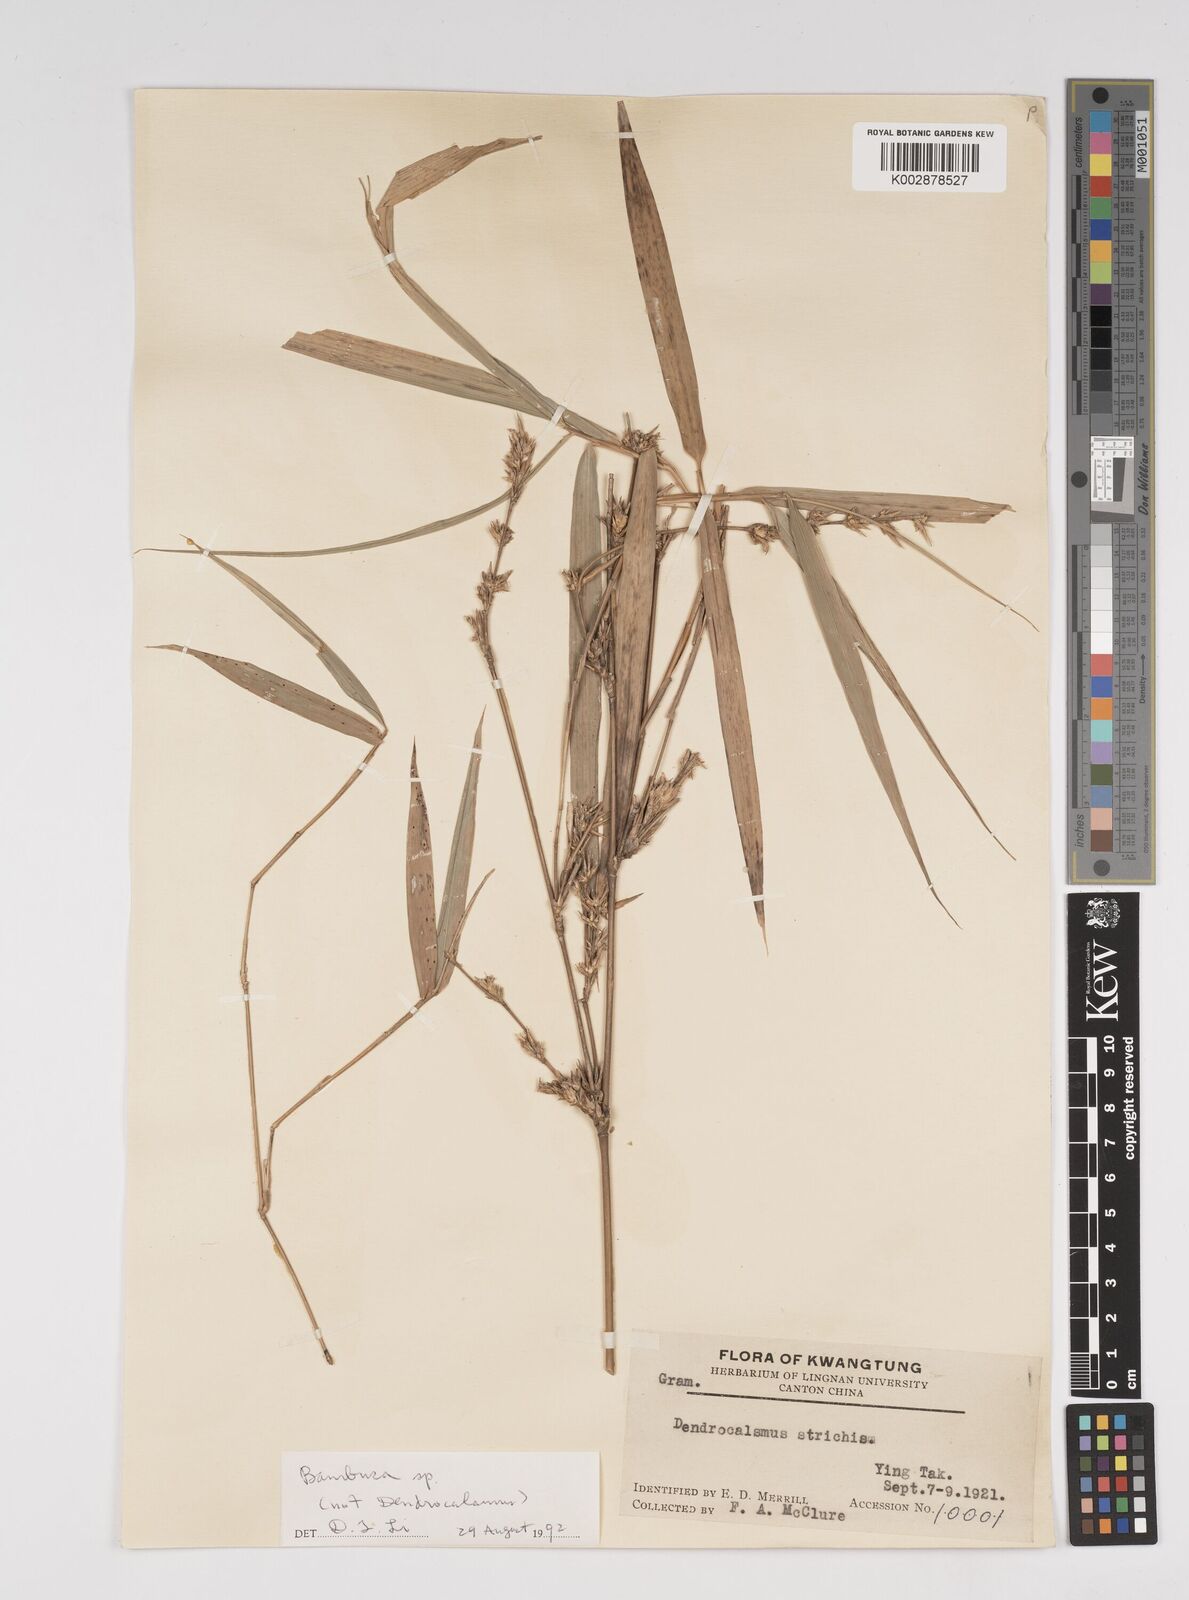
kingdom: Plantae
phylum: Tracheophyta
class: Liliopsida
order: Poales
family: Poaceae
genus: Dendrocalamus
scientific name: Dendrocalamus
